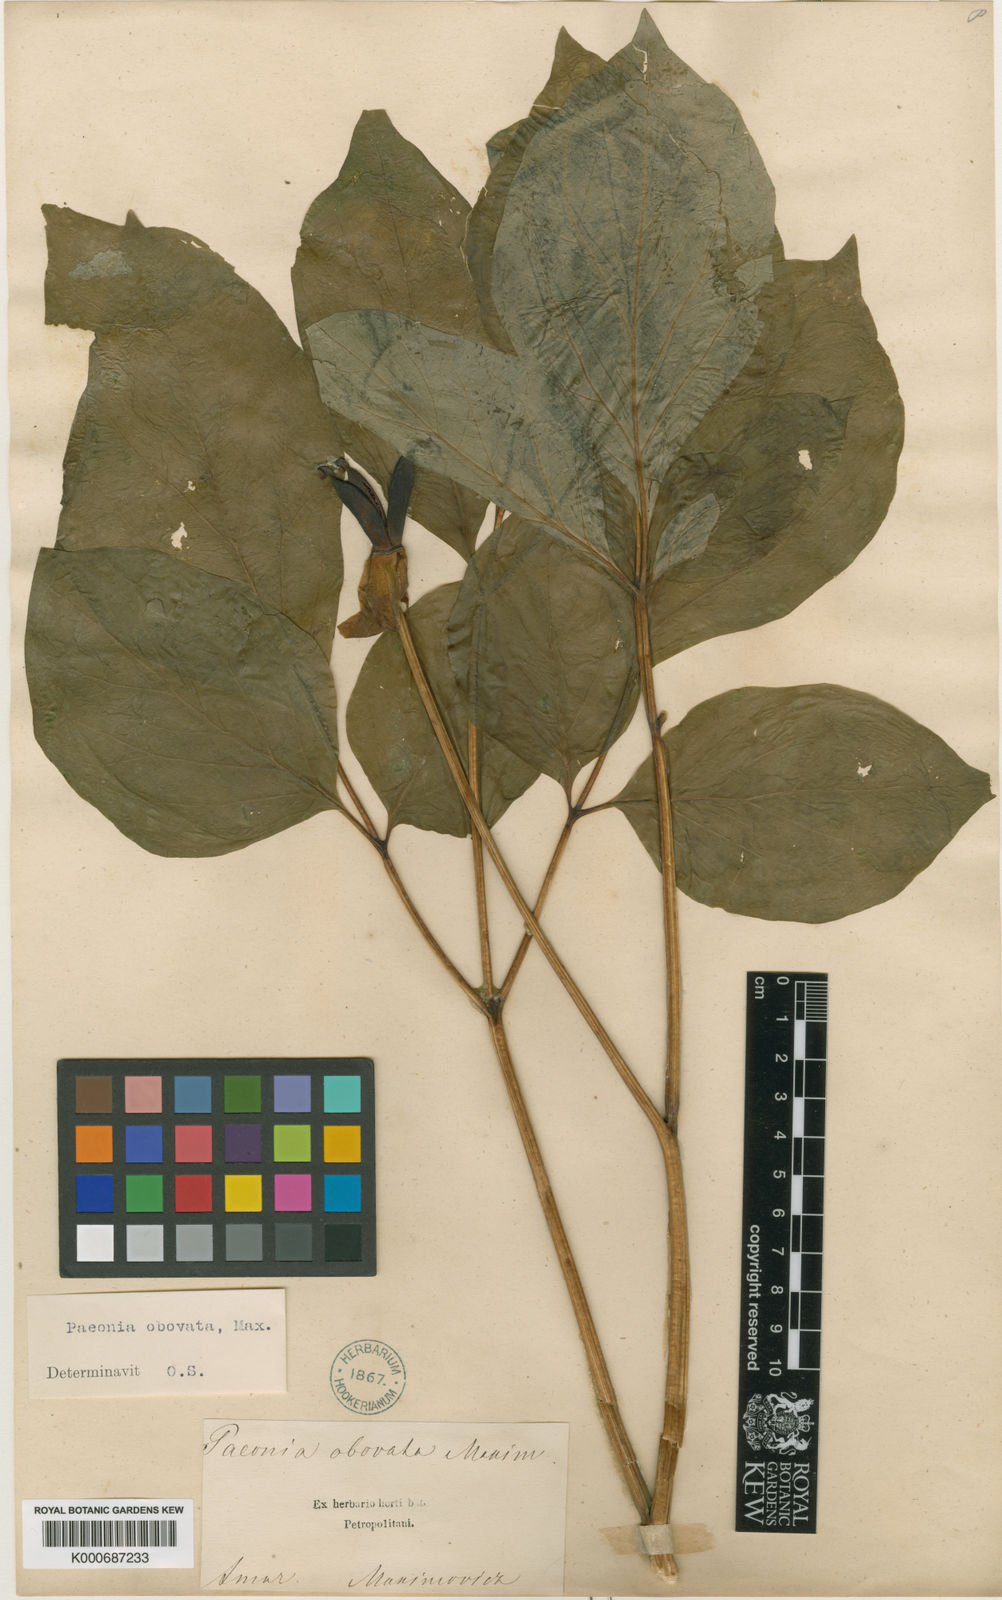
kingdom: Plantae
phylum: Tracheophyta
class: Magnoliopsida
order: Saxifragales
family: Paeoniaceae
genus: Paeonia
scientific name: Paeonia obovata
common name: Chinese peony
